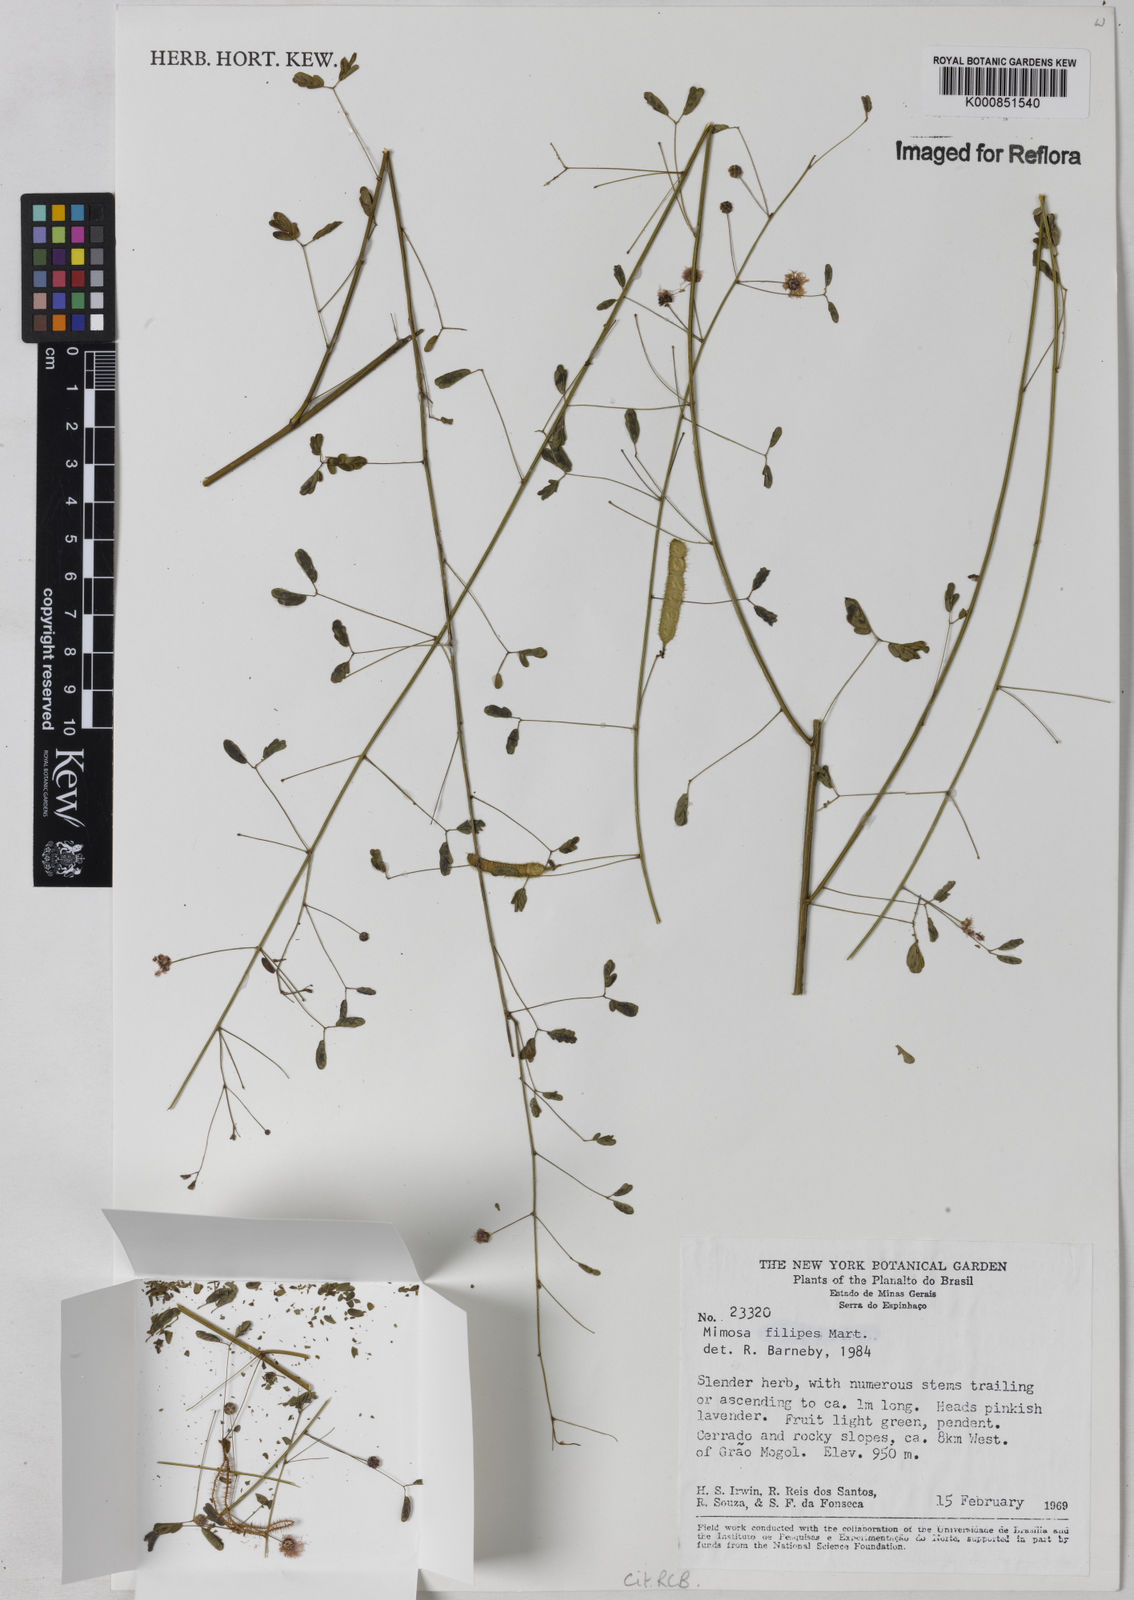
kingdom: Plantae
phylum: Tracheophyta
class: Magnoliopsida
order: Fabales
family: Fabaceae
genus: Mimosa
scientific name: Mimosa texana
